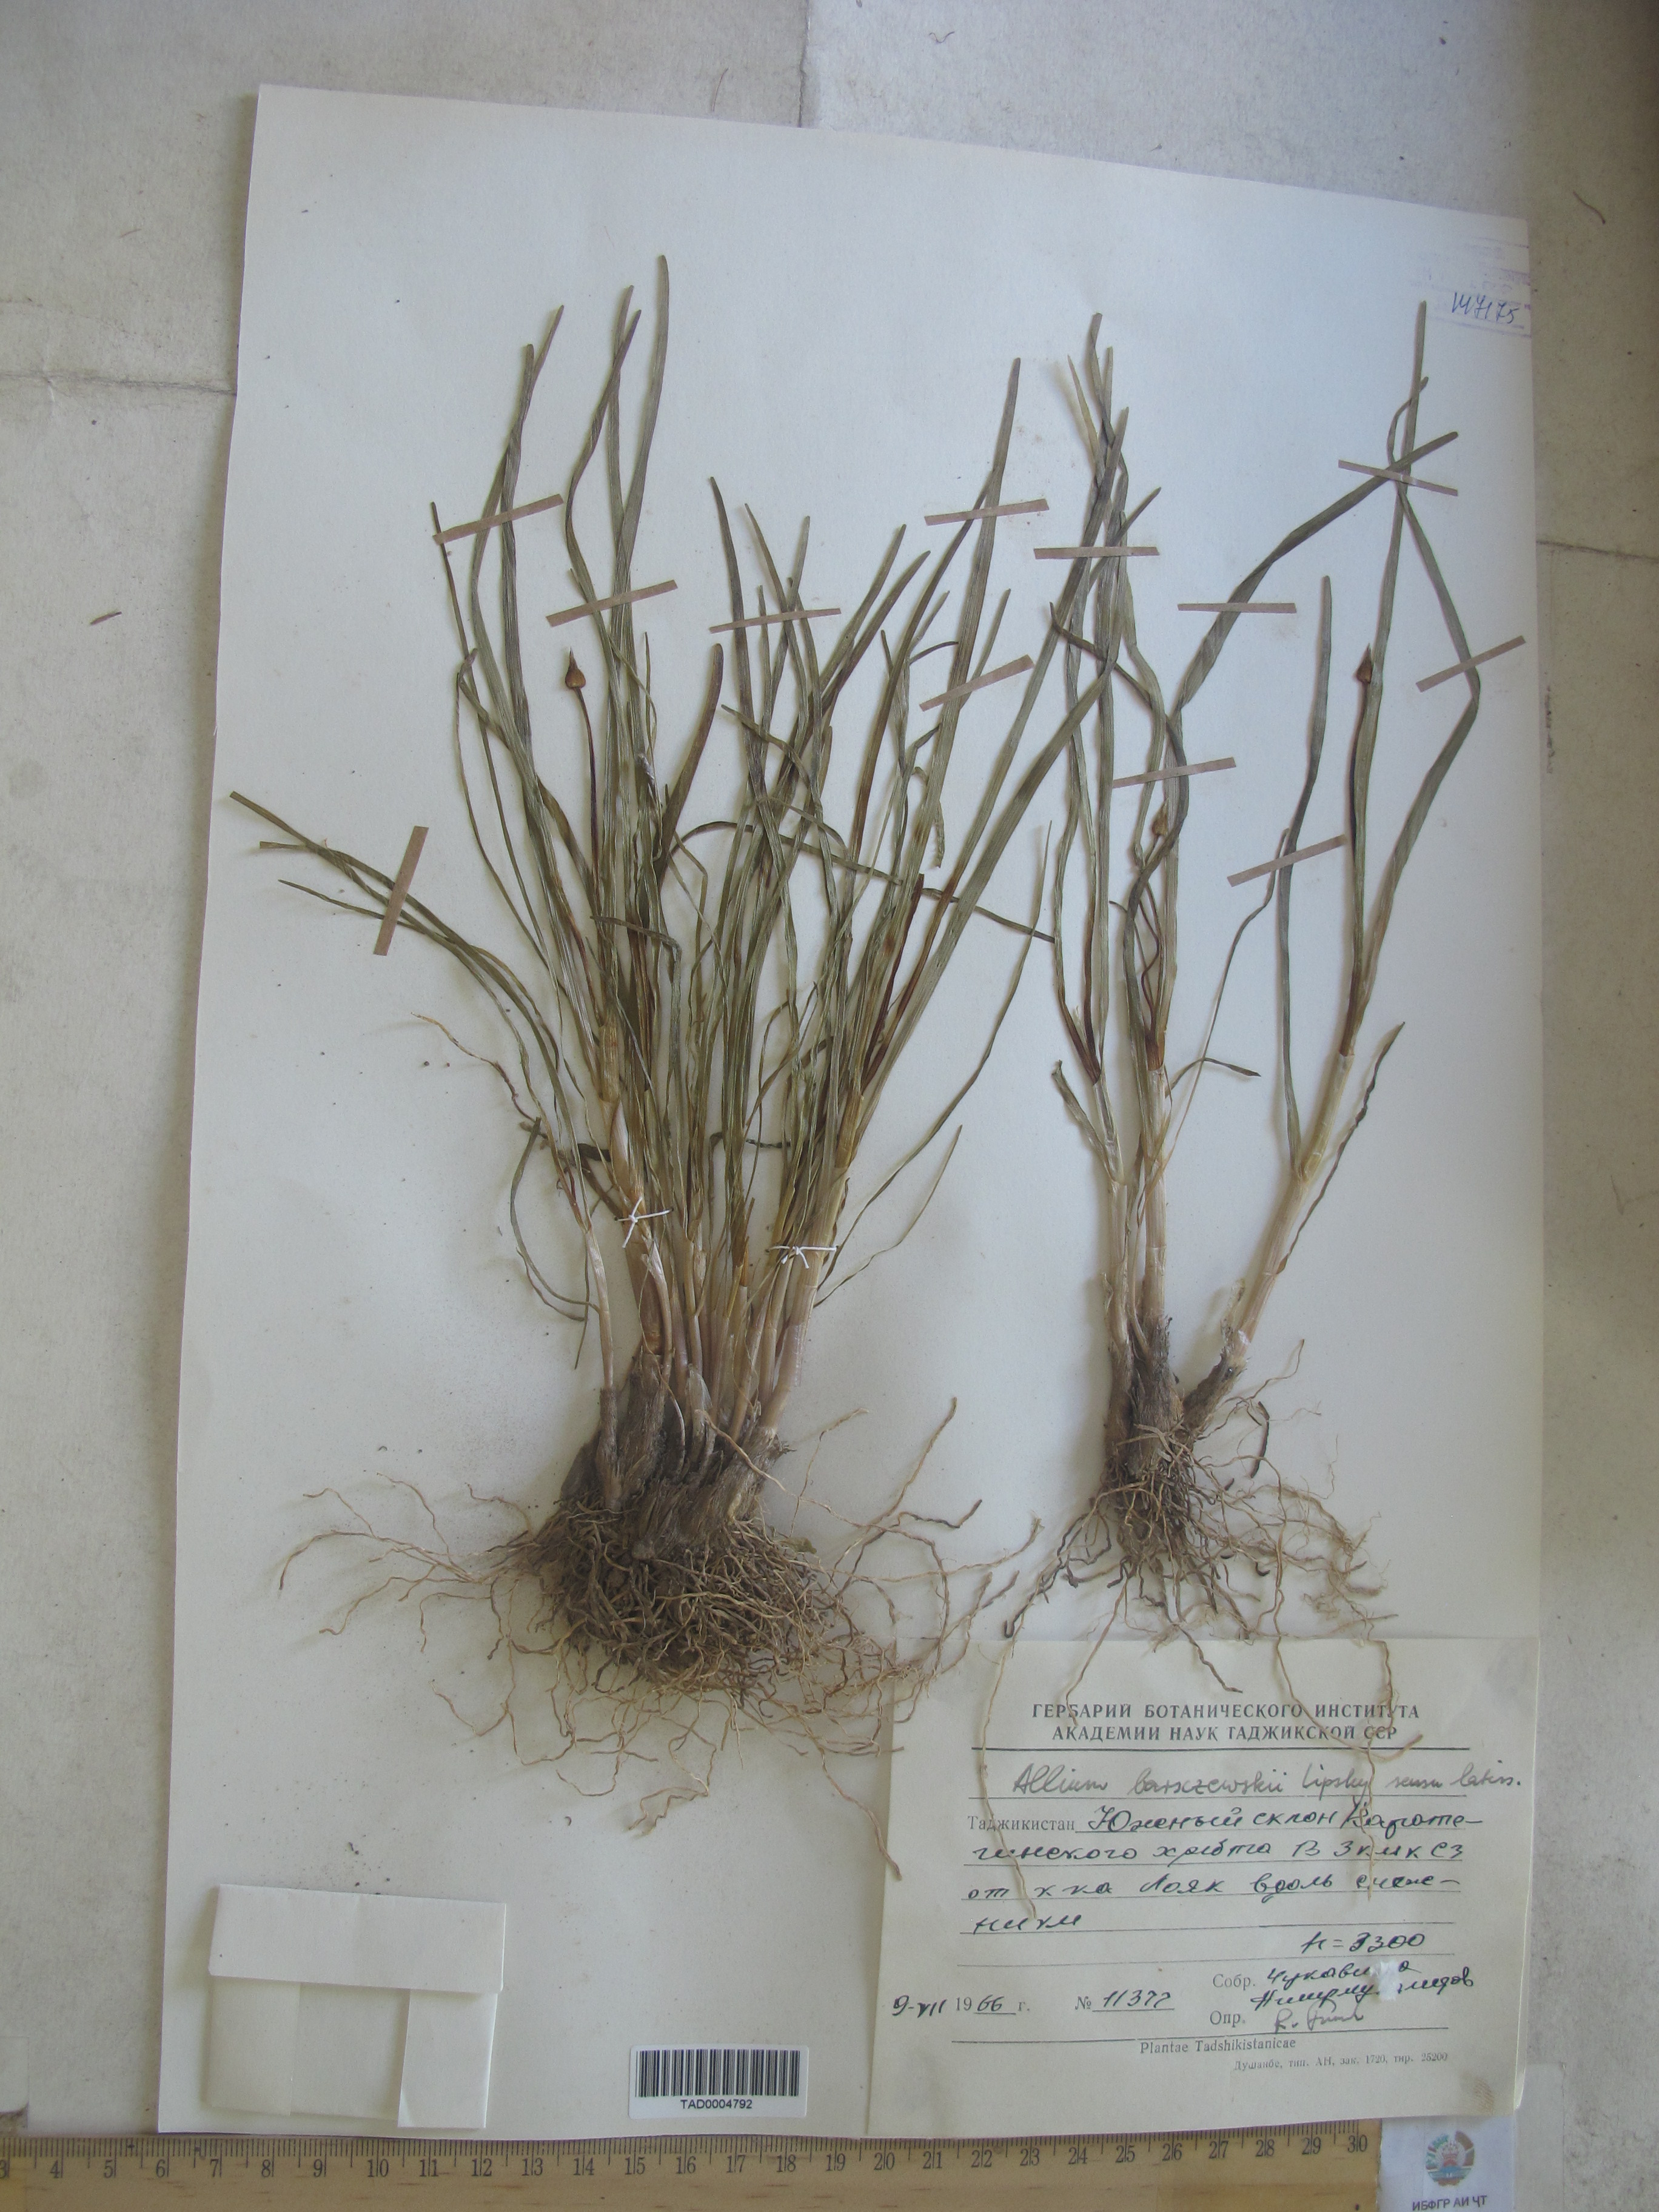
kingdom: Plantae
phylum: Tracheophyta
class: Liliopsida
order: Asparagales
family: Amaryllidaceae
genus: Allium
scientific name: Allium barsczewskii
